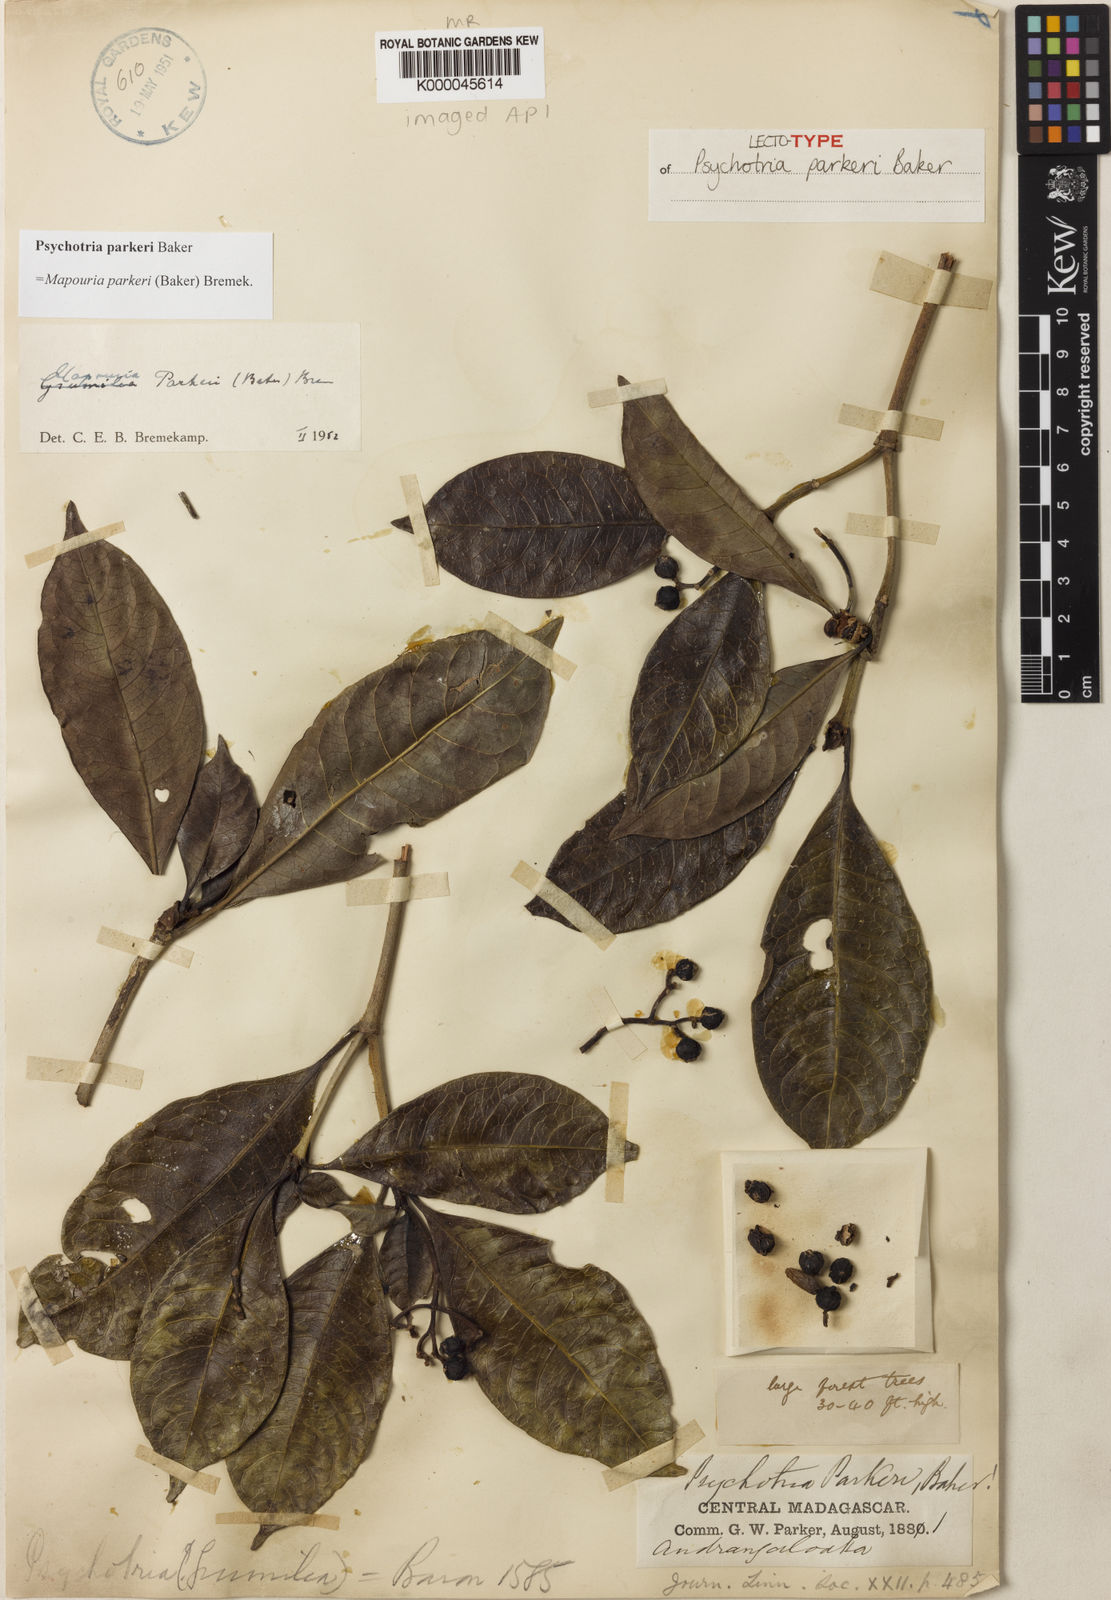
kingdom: Plantae
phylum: Tracheophyta
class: Magnoliopsida
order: Gentianales
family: Rubiaceae
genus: Psychotria
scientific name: Psychotria parkeri
